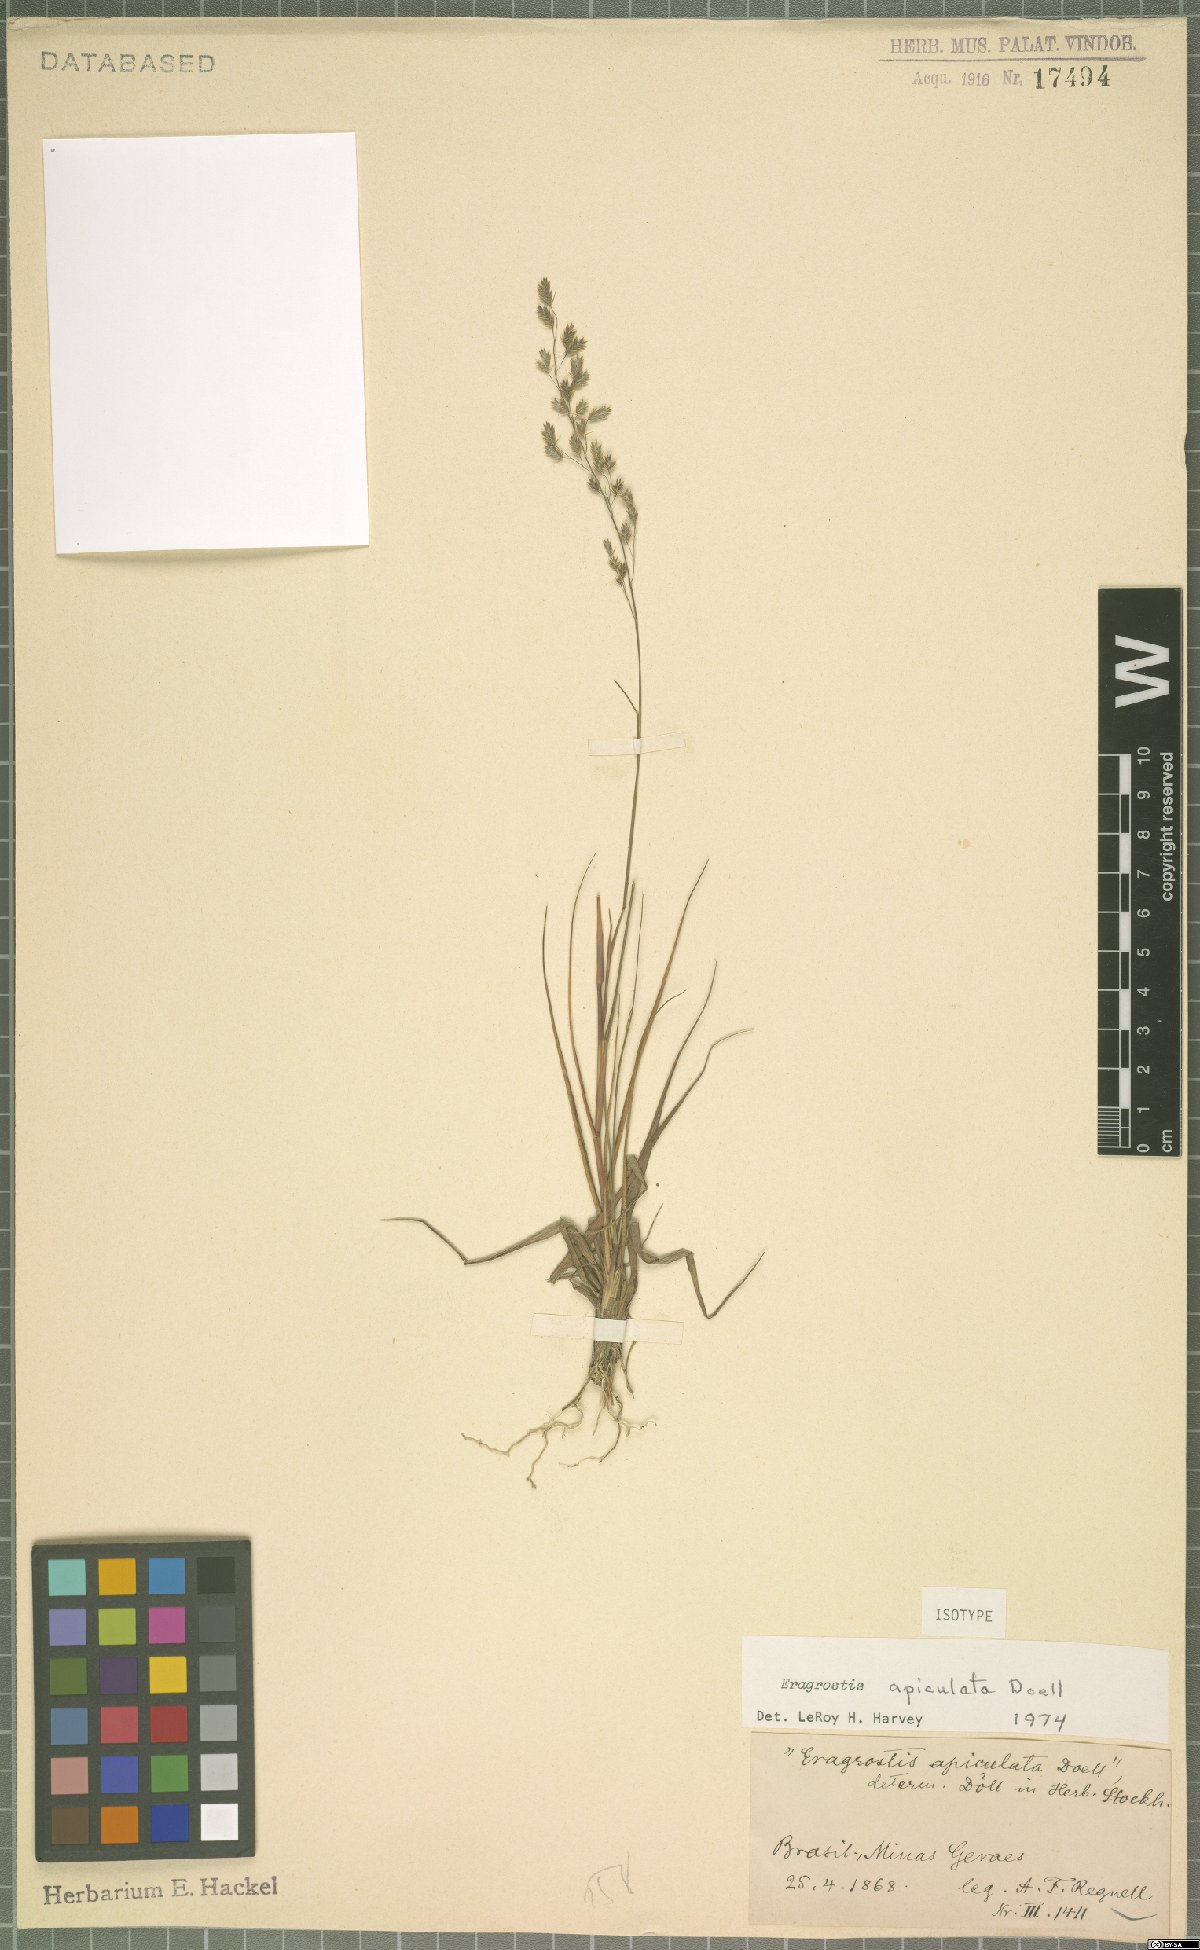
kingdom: Plantae
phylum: Tracheophyta
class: Liliopsida
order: Poales
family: Poaceae
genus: Eragrostis
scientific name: Eragrostis apiculata
